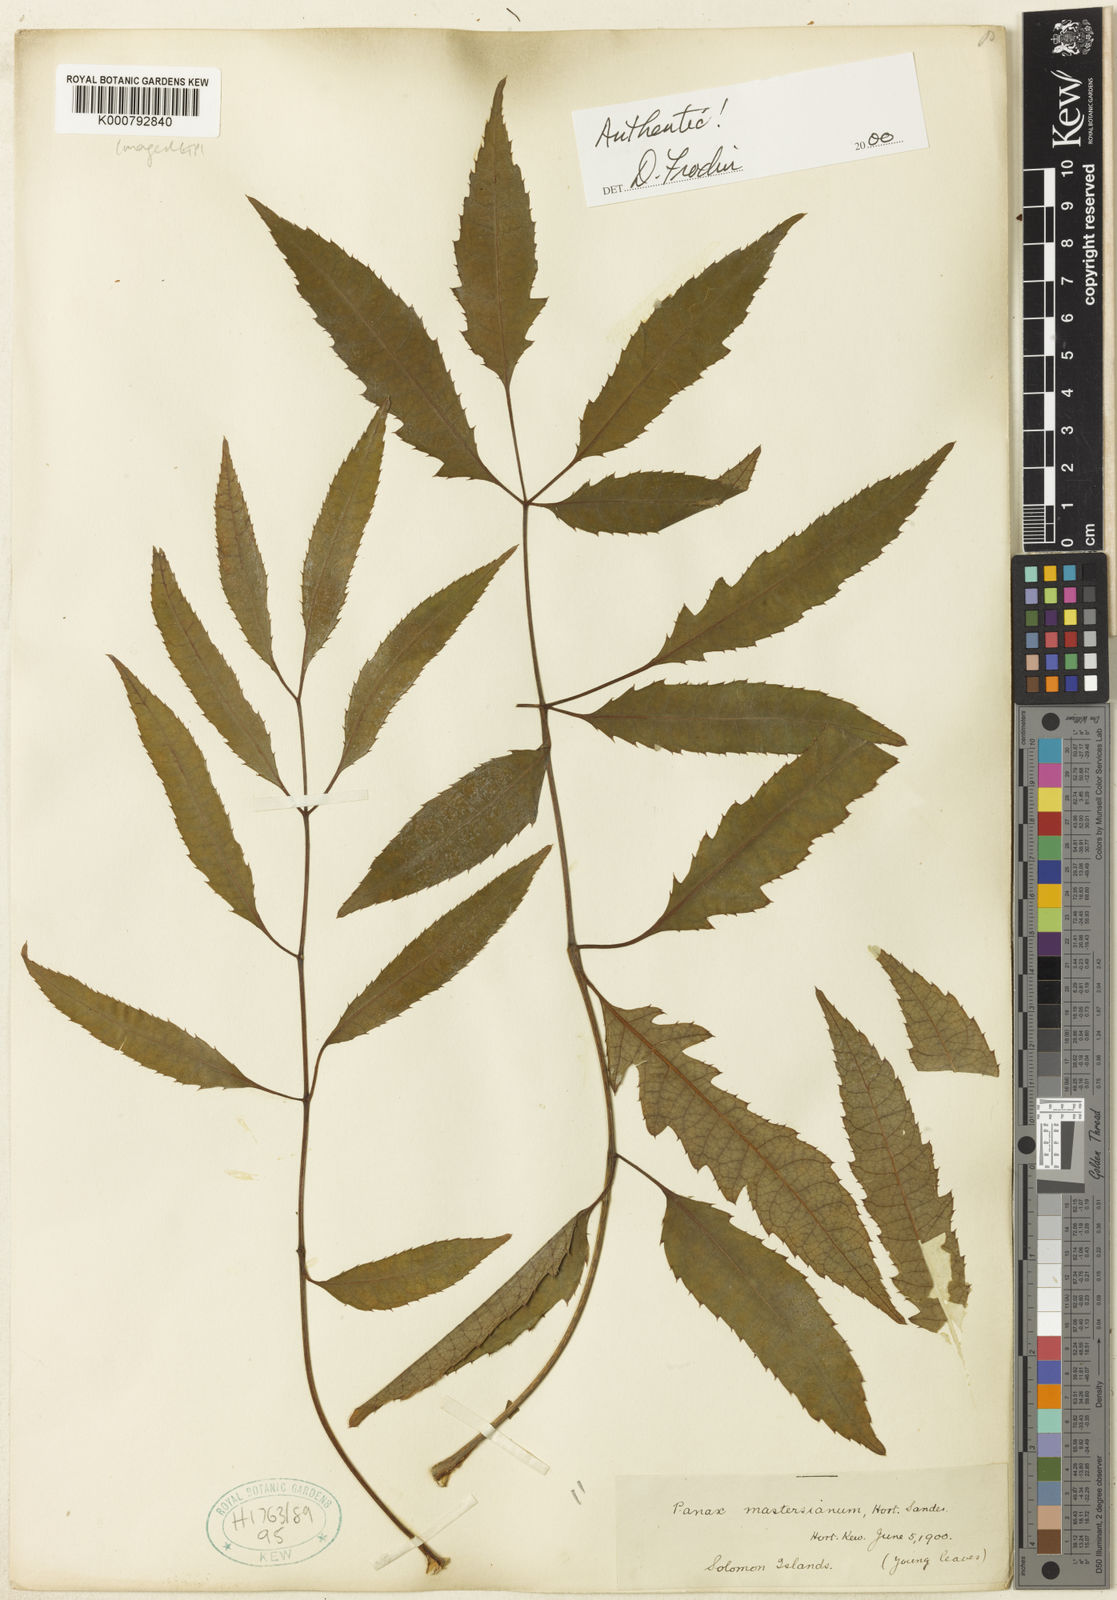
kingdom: Plantae
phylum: Tracheophyta
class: Magnoliopsida
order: Apiales
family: Araliaceae
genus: Polyscias
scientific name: Polyscias
